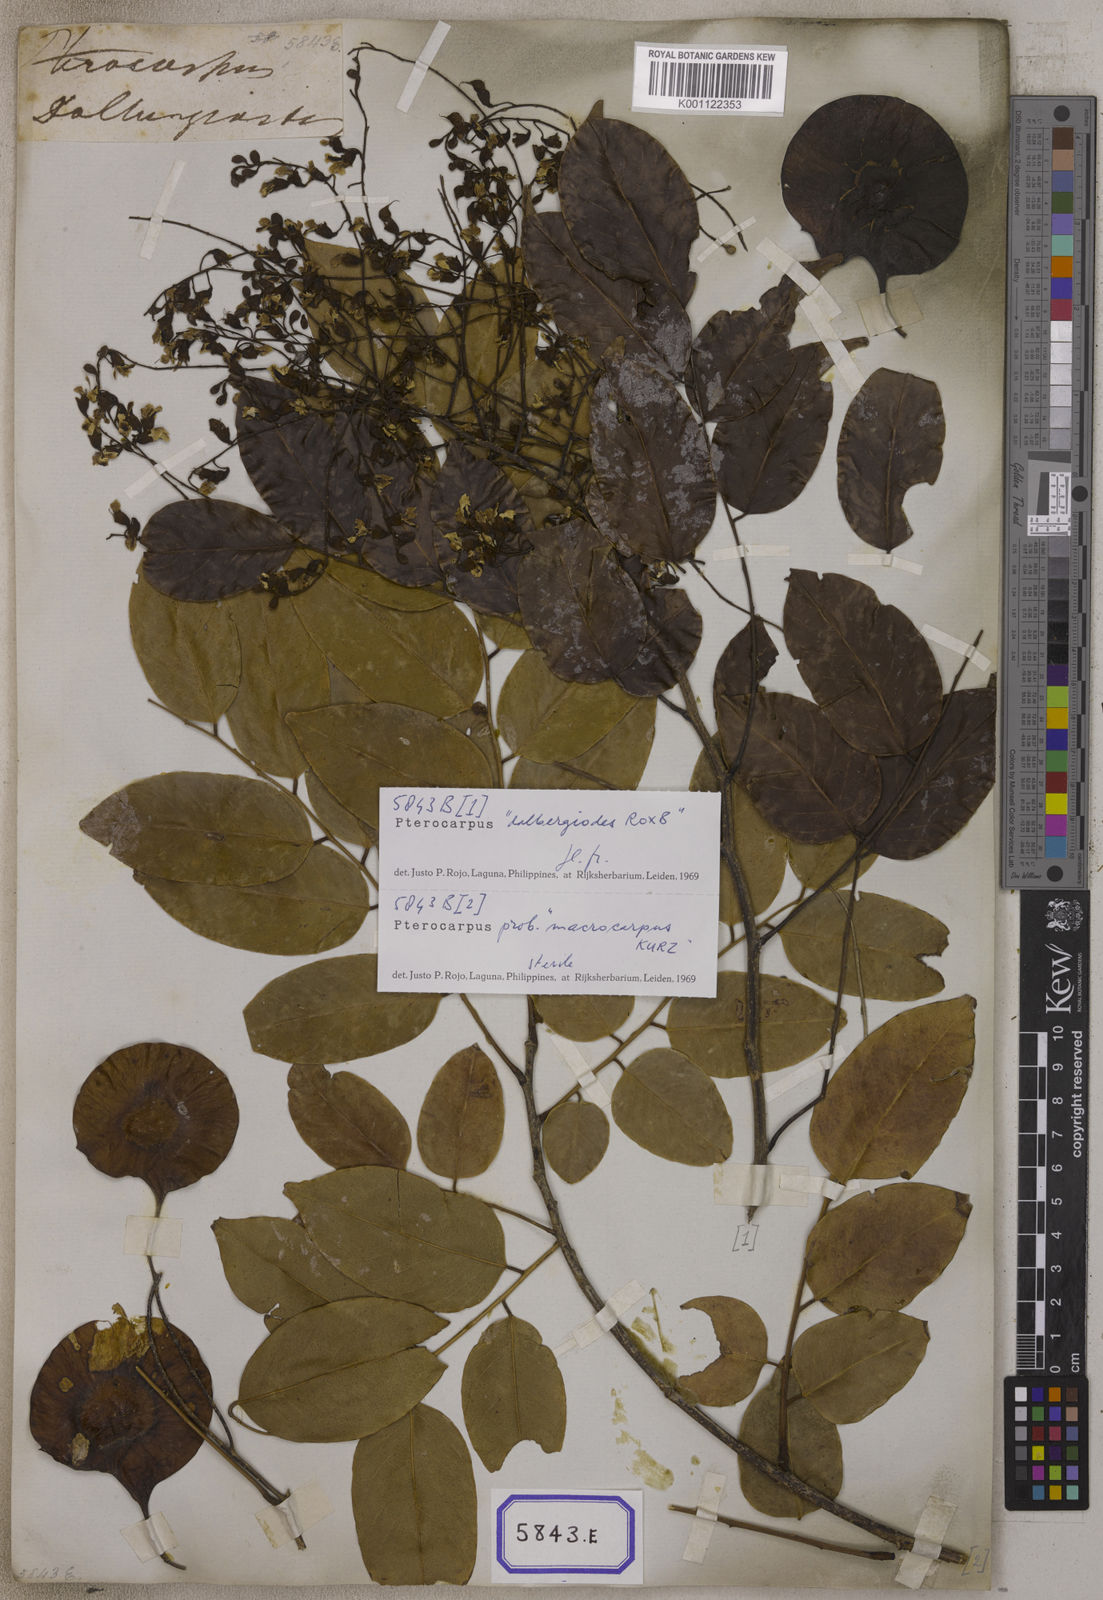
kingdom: Plantae
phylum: Tracheophyta
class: Magnoliopsida
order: Fabales
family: Fabaceae
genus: Pterocarpus
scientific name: Pterocarpus
